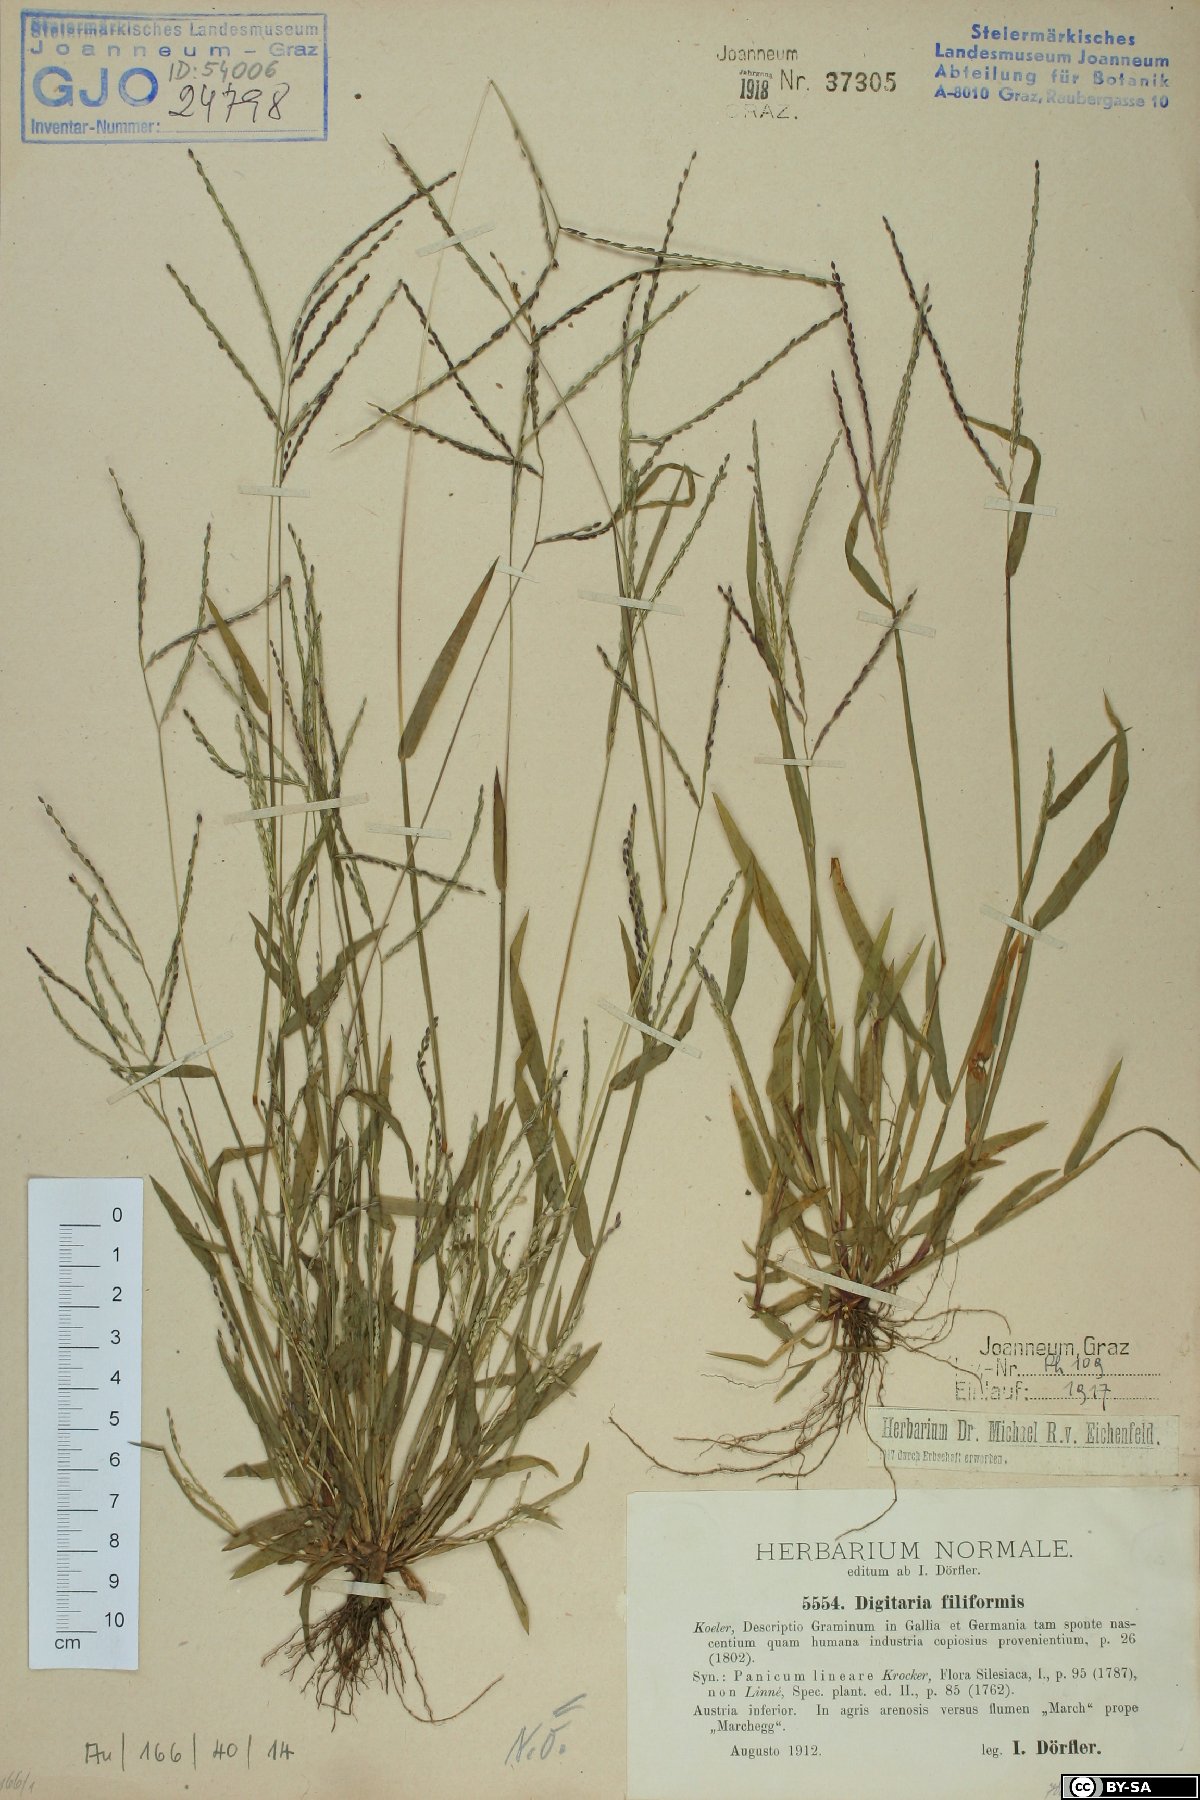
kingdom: Plantae
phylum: Tracheophyta
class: Liliopsida
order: Poales
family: Poaceae
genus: Digitaria
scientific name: Digitaria filiformis
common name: Slender crabgrass
